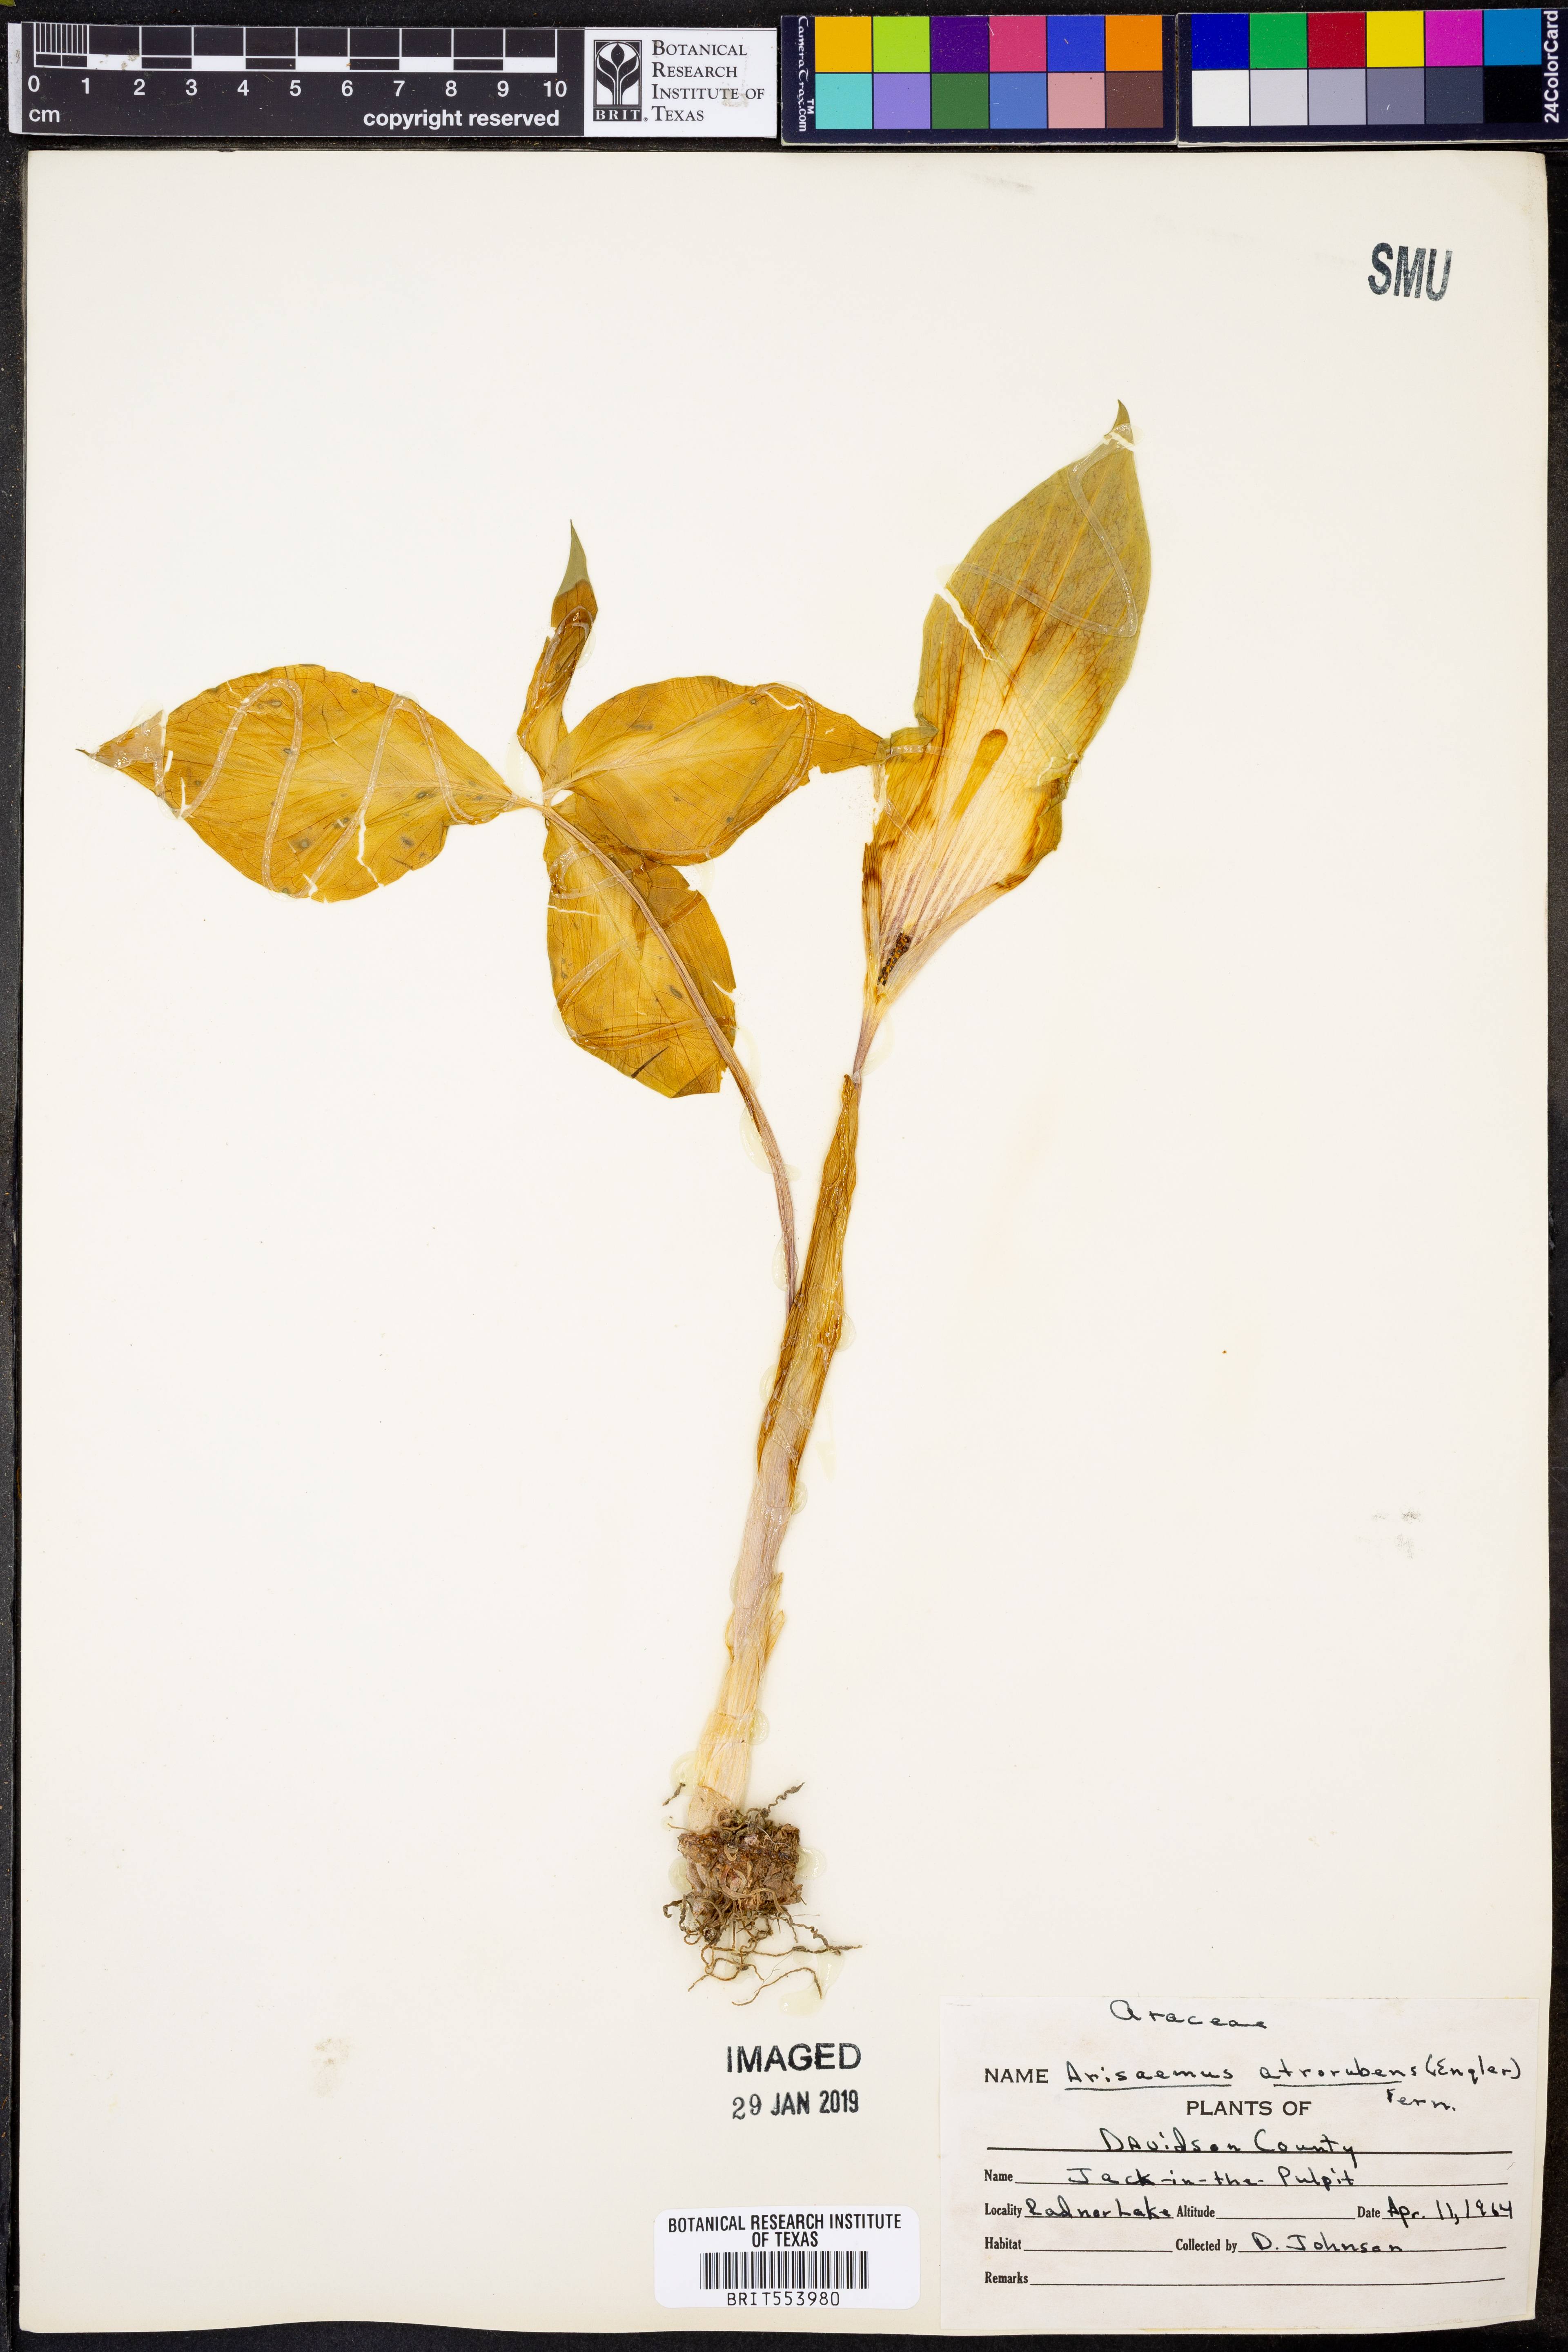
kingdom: Plantae
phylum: Tracheophyta
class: Liliopsida
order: Alismatales
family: Araceae
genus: Arisaema
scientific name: Arisaema triphyllum
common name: Jack-in-the-pulpit
